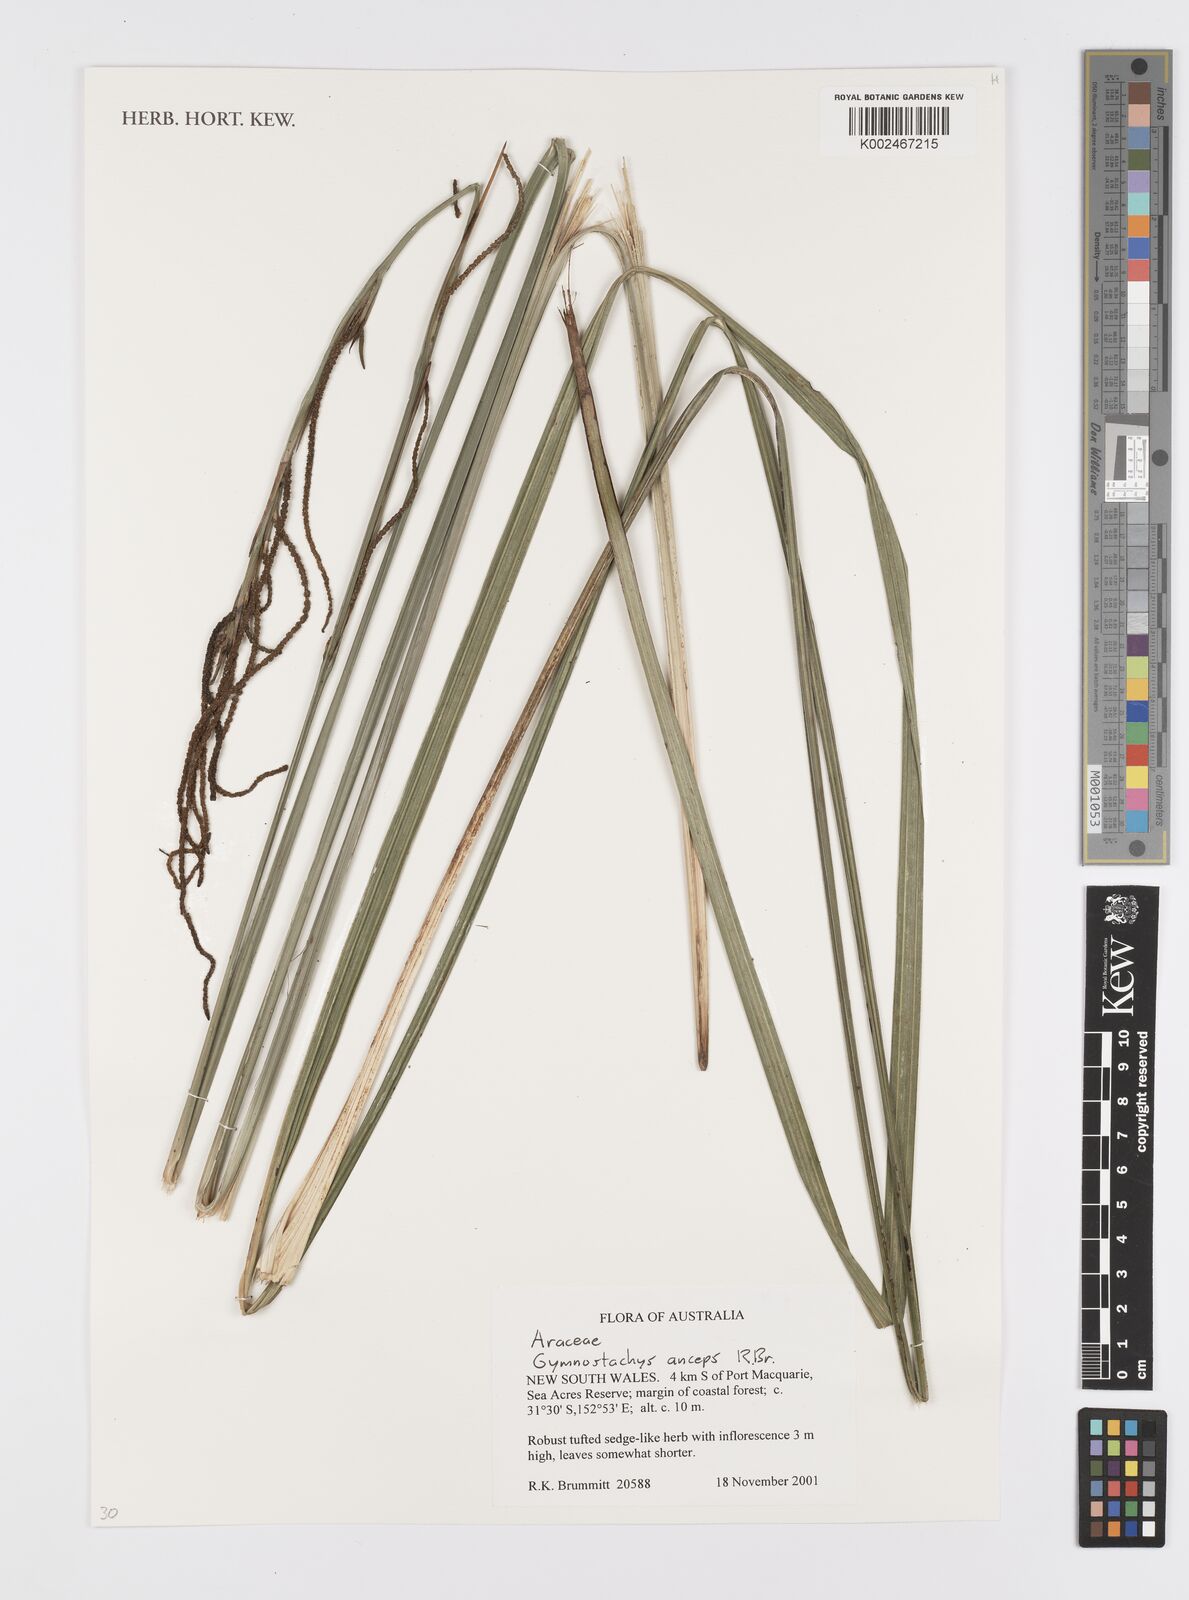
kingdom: Plantae
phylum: Tracheophyta
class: Liliopsida
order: Alismatales
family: Araceae
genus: Gymnostachys
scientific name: Gymnostachys anceps
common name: Settler's-flax
